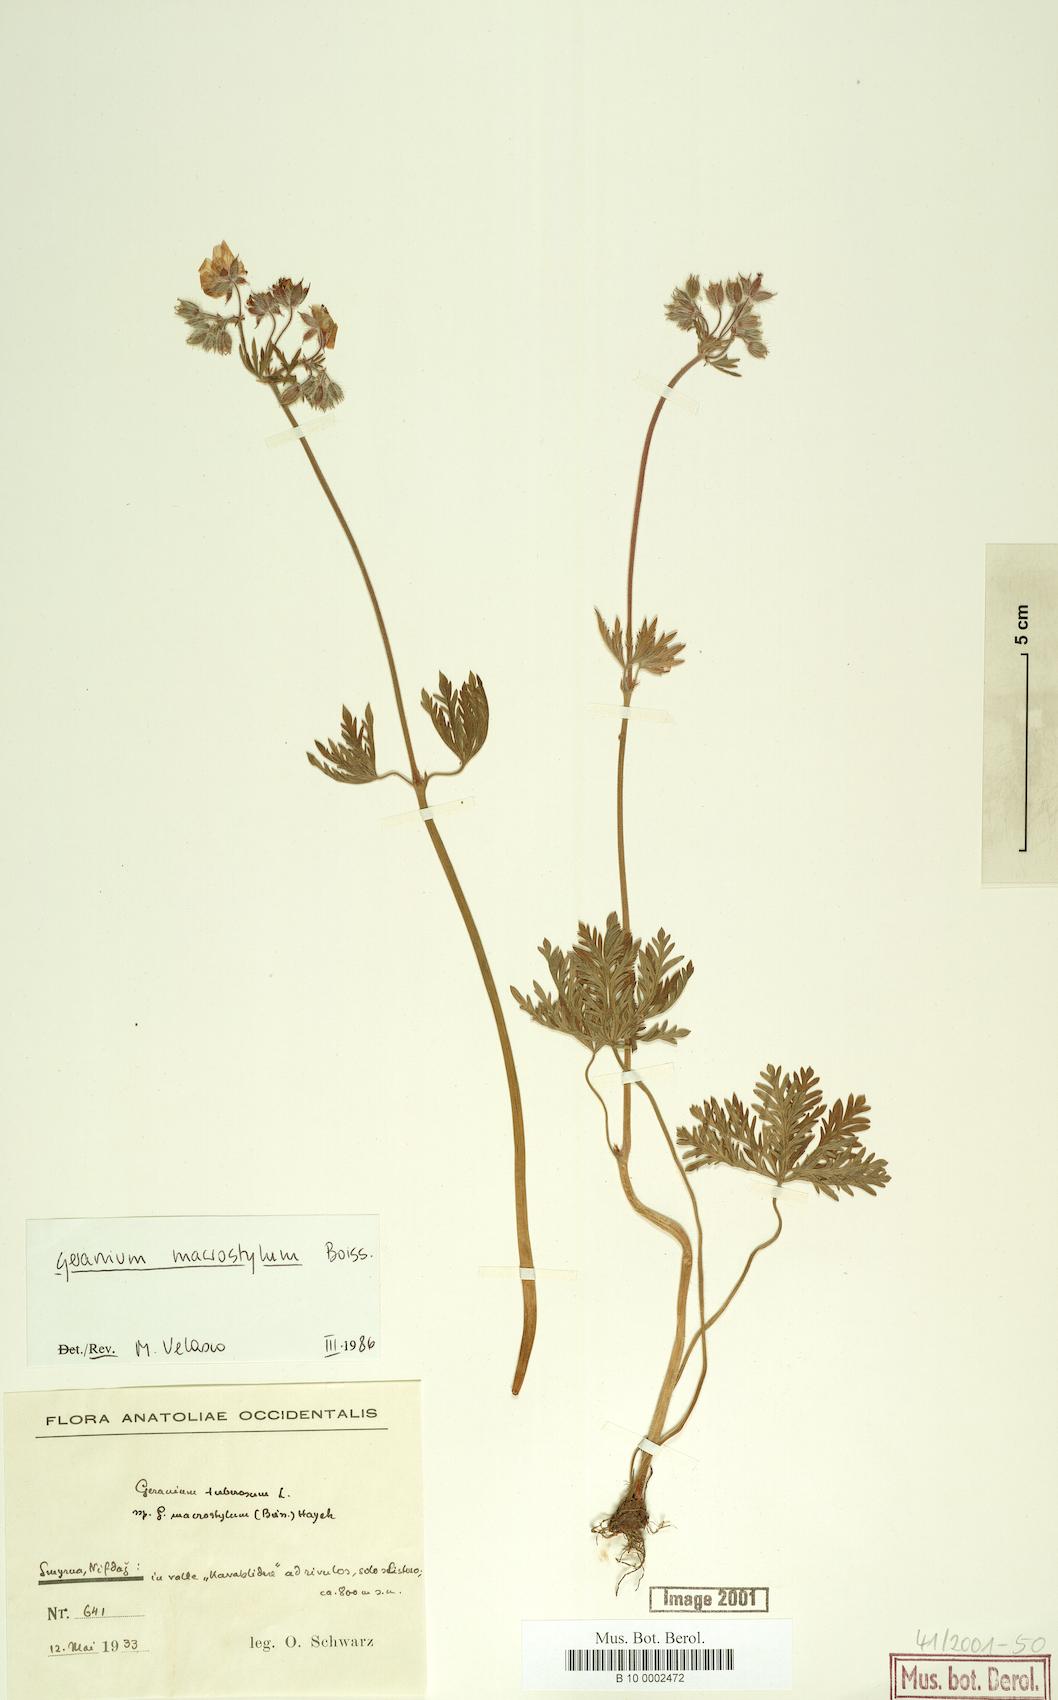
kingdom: Plantae
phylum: Tracheophyta
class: Magnoliopsida
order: Geraniales
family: Geraniaceae
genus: Geranium
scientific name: Geranium macrostylum
